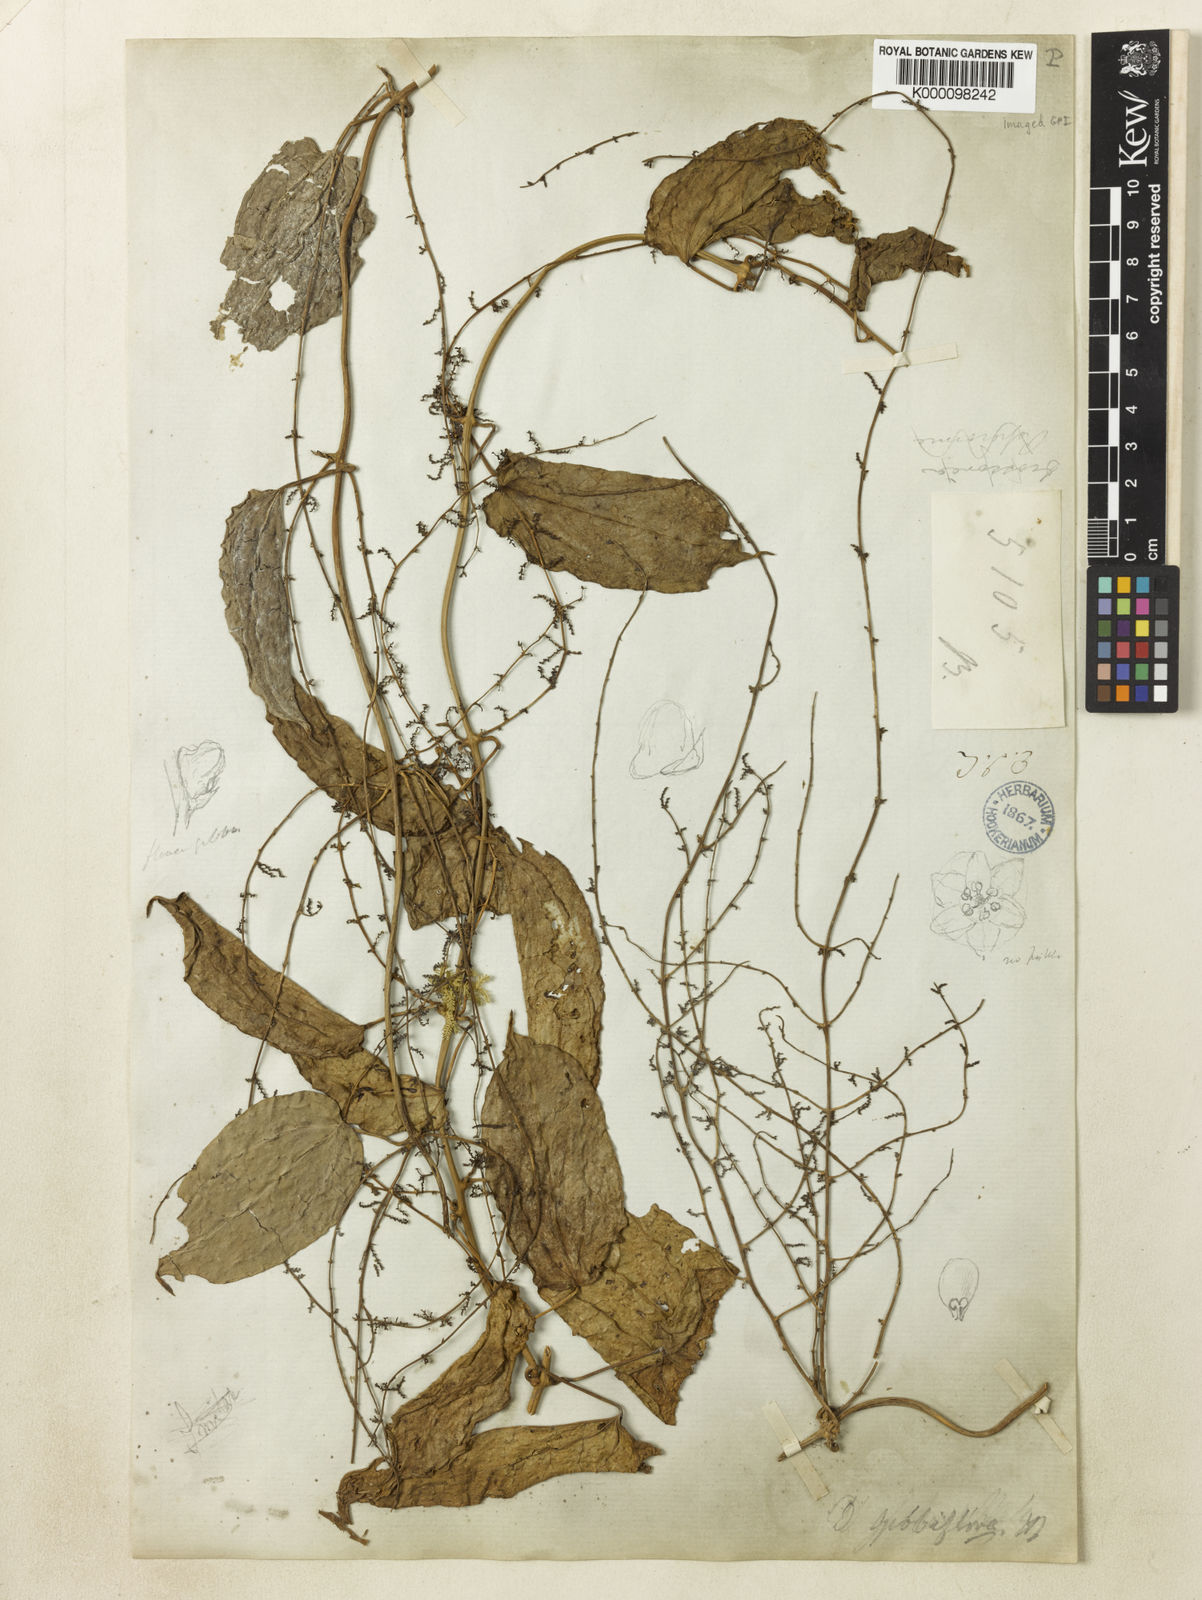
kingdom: Plantae
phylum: Tracheophyta
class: Liliopsida
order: Dioscoreales
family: Dioscoreaceae
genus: Dioscorea
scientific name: Dioscorea filiformis
